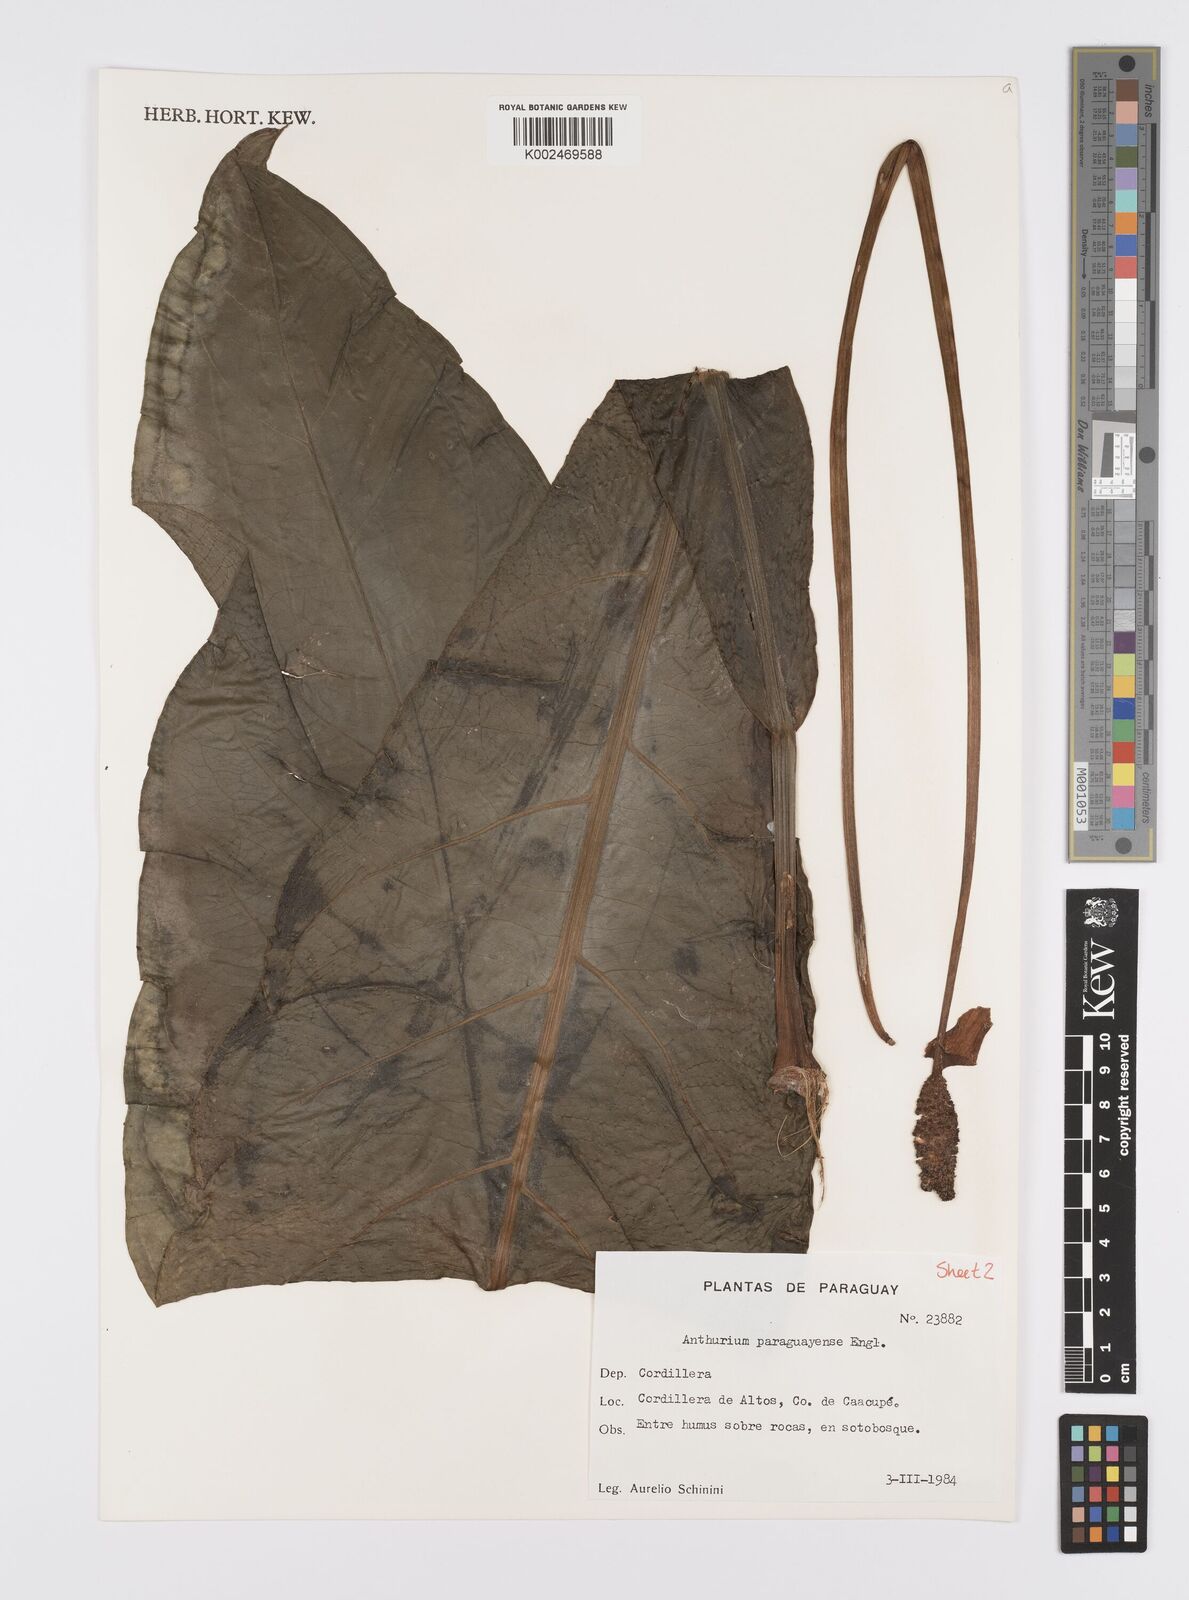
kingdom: Plantae
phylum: Tracheophyta
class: Liliopsida
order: Alismatales
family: Araceae
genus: Anthurium
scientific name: Anthurium paraguayense
